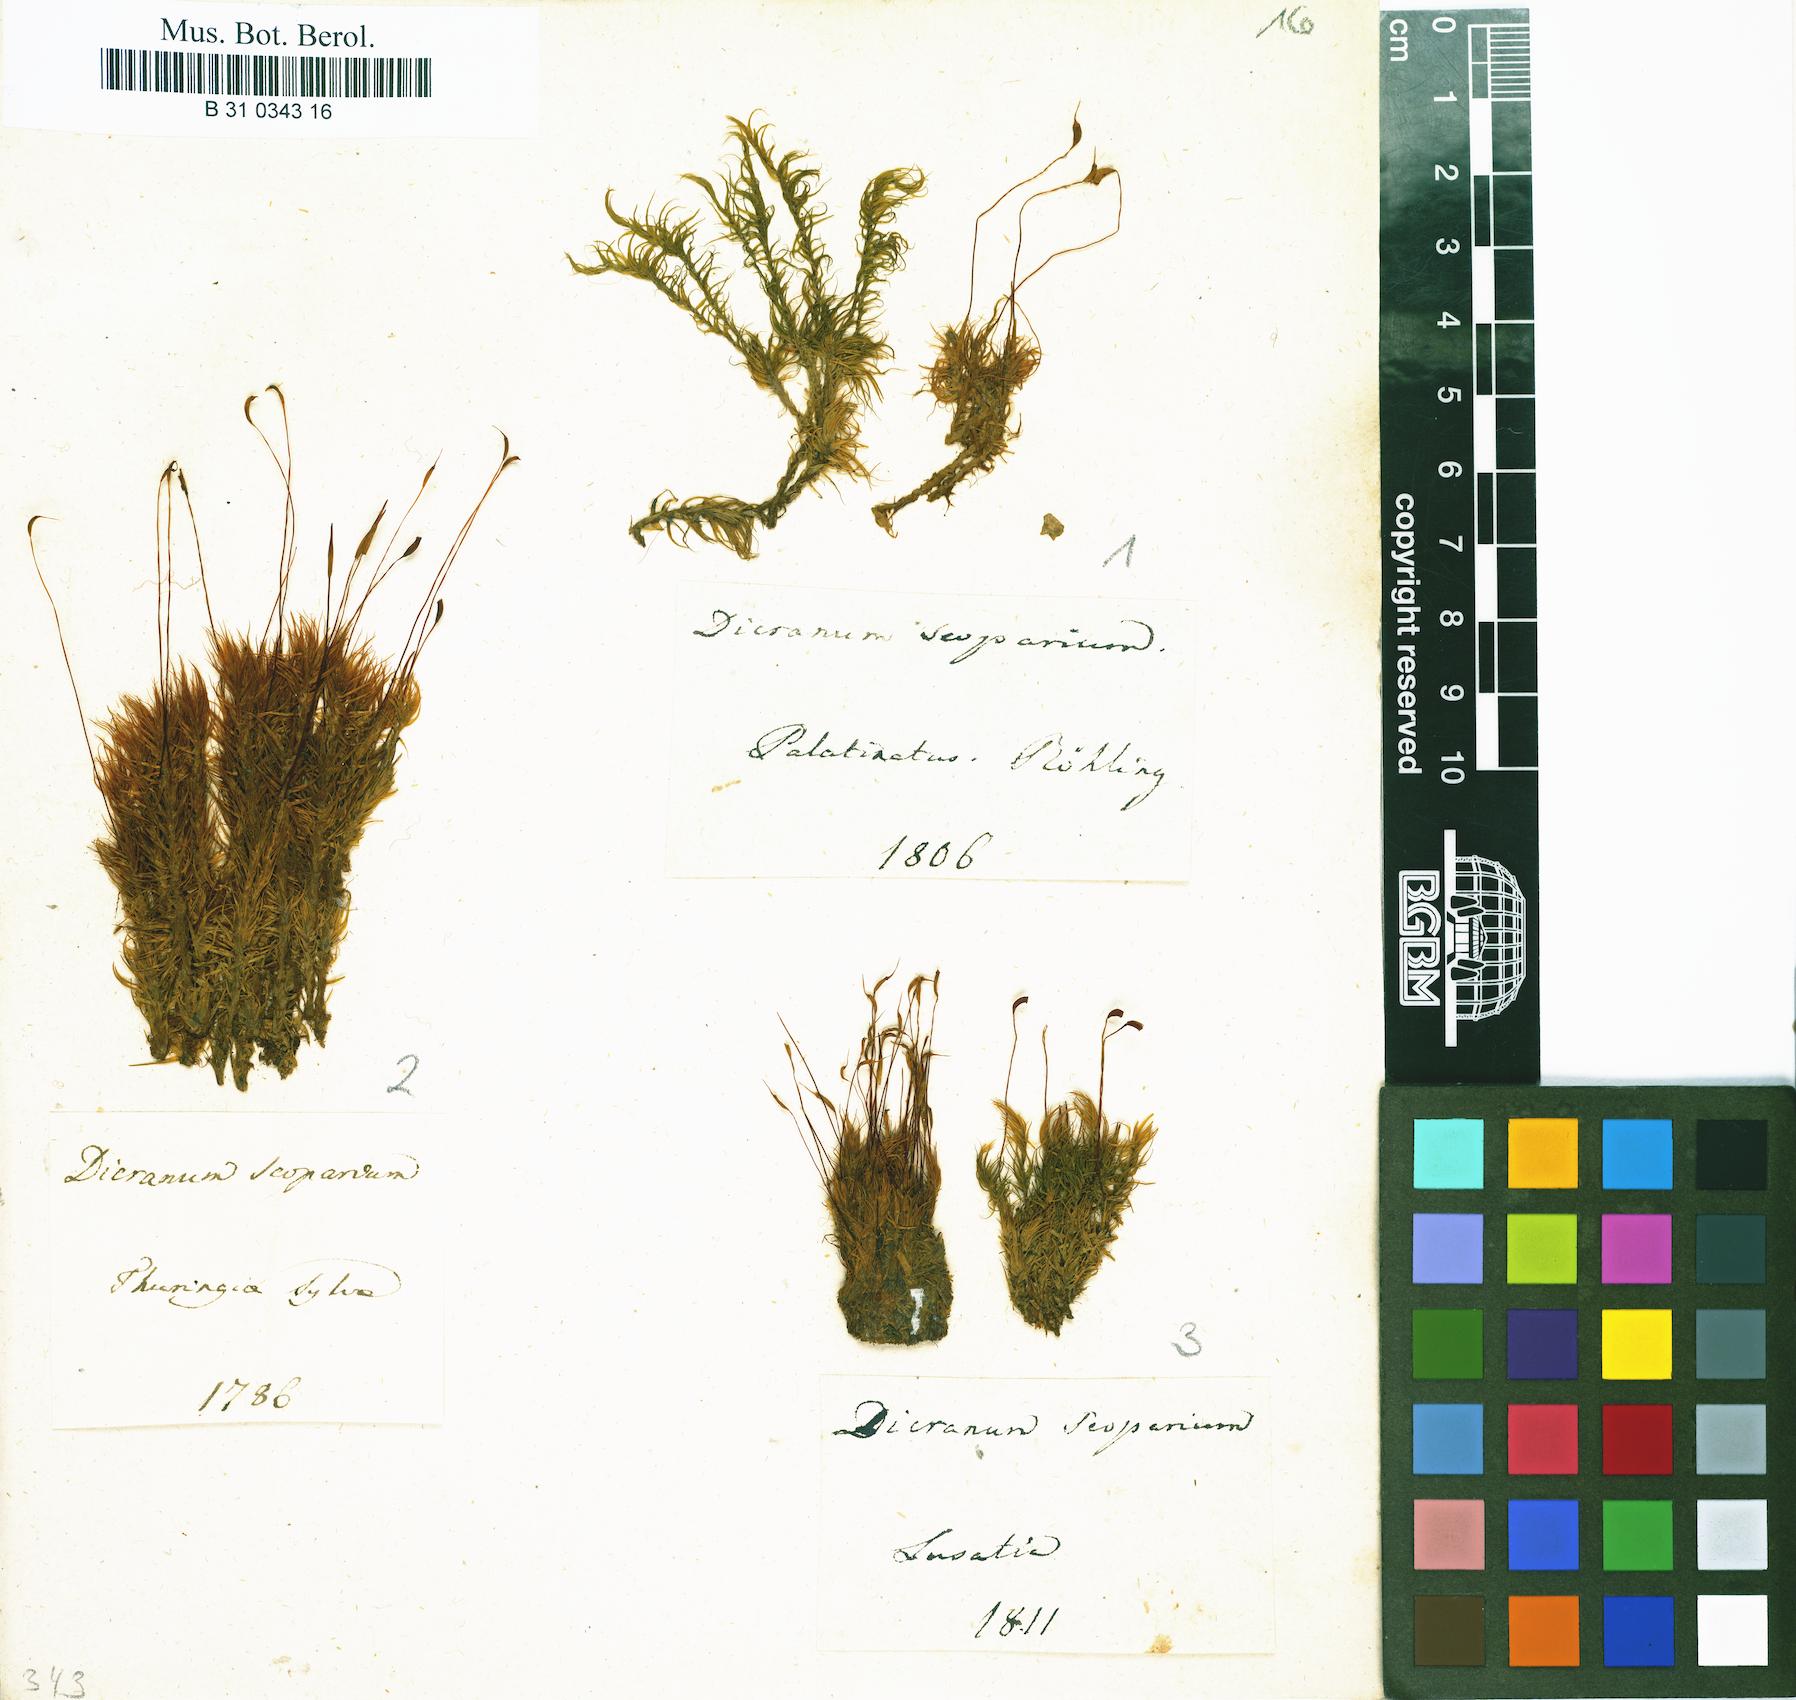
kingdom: Plantae
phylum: Bryophyta
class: Bryopsida
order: Dicranales
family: Dicranaceae
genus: Dicranum
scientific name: Dicranum scoparium
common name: Broom fork-moss
